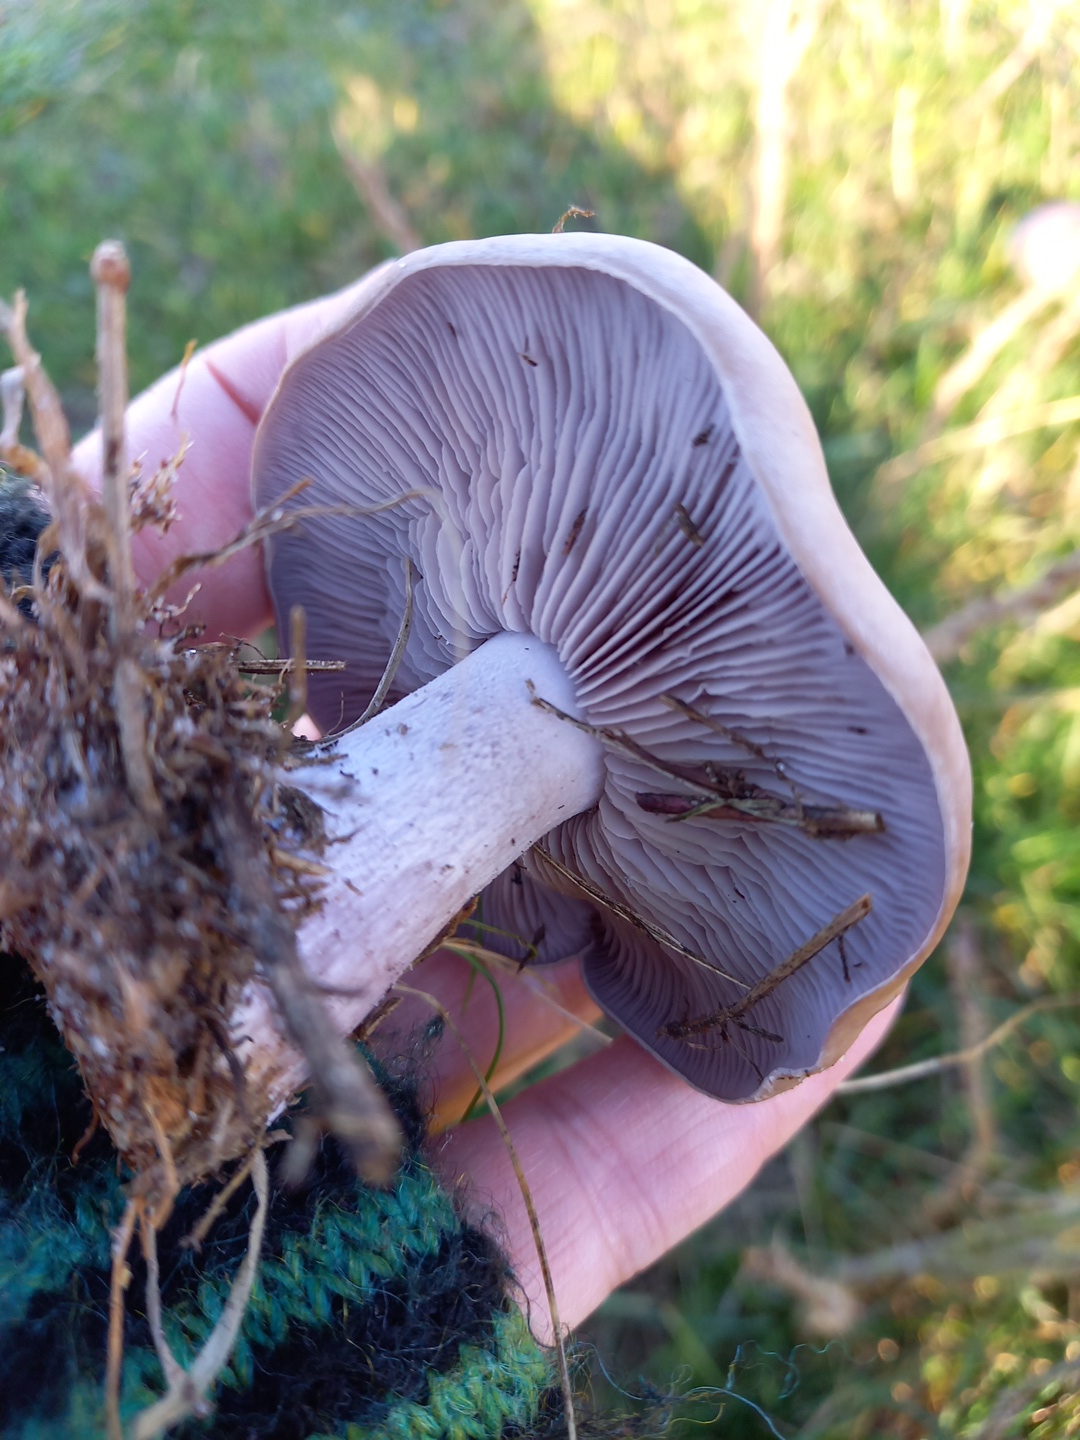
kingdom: Fungi
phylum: Basidiomycota
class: Agaricomycetes
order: Agaricales
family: Tricholomataceae
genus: Lepista
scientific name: Lepista nuda
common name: violet hekseringshat
